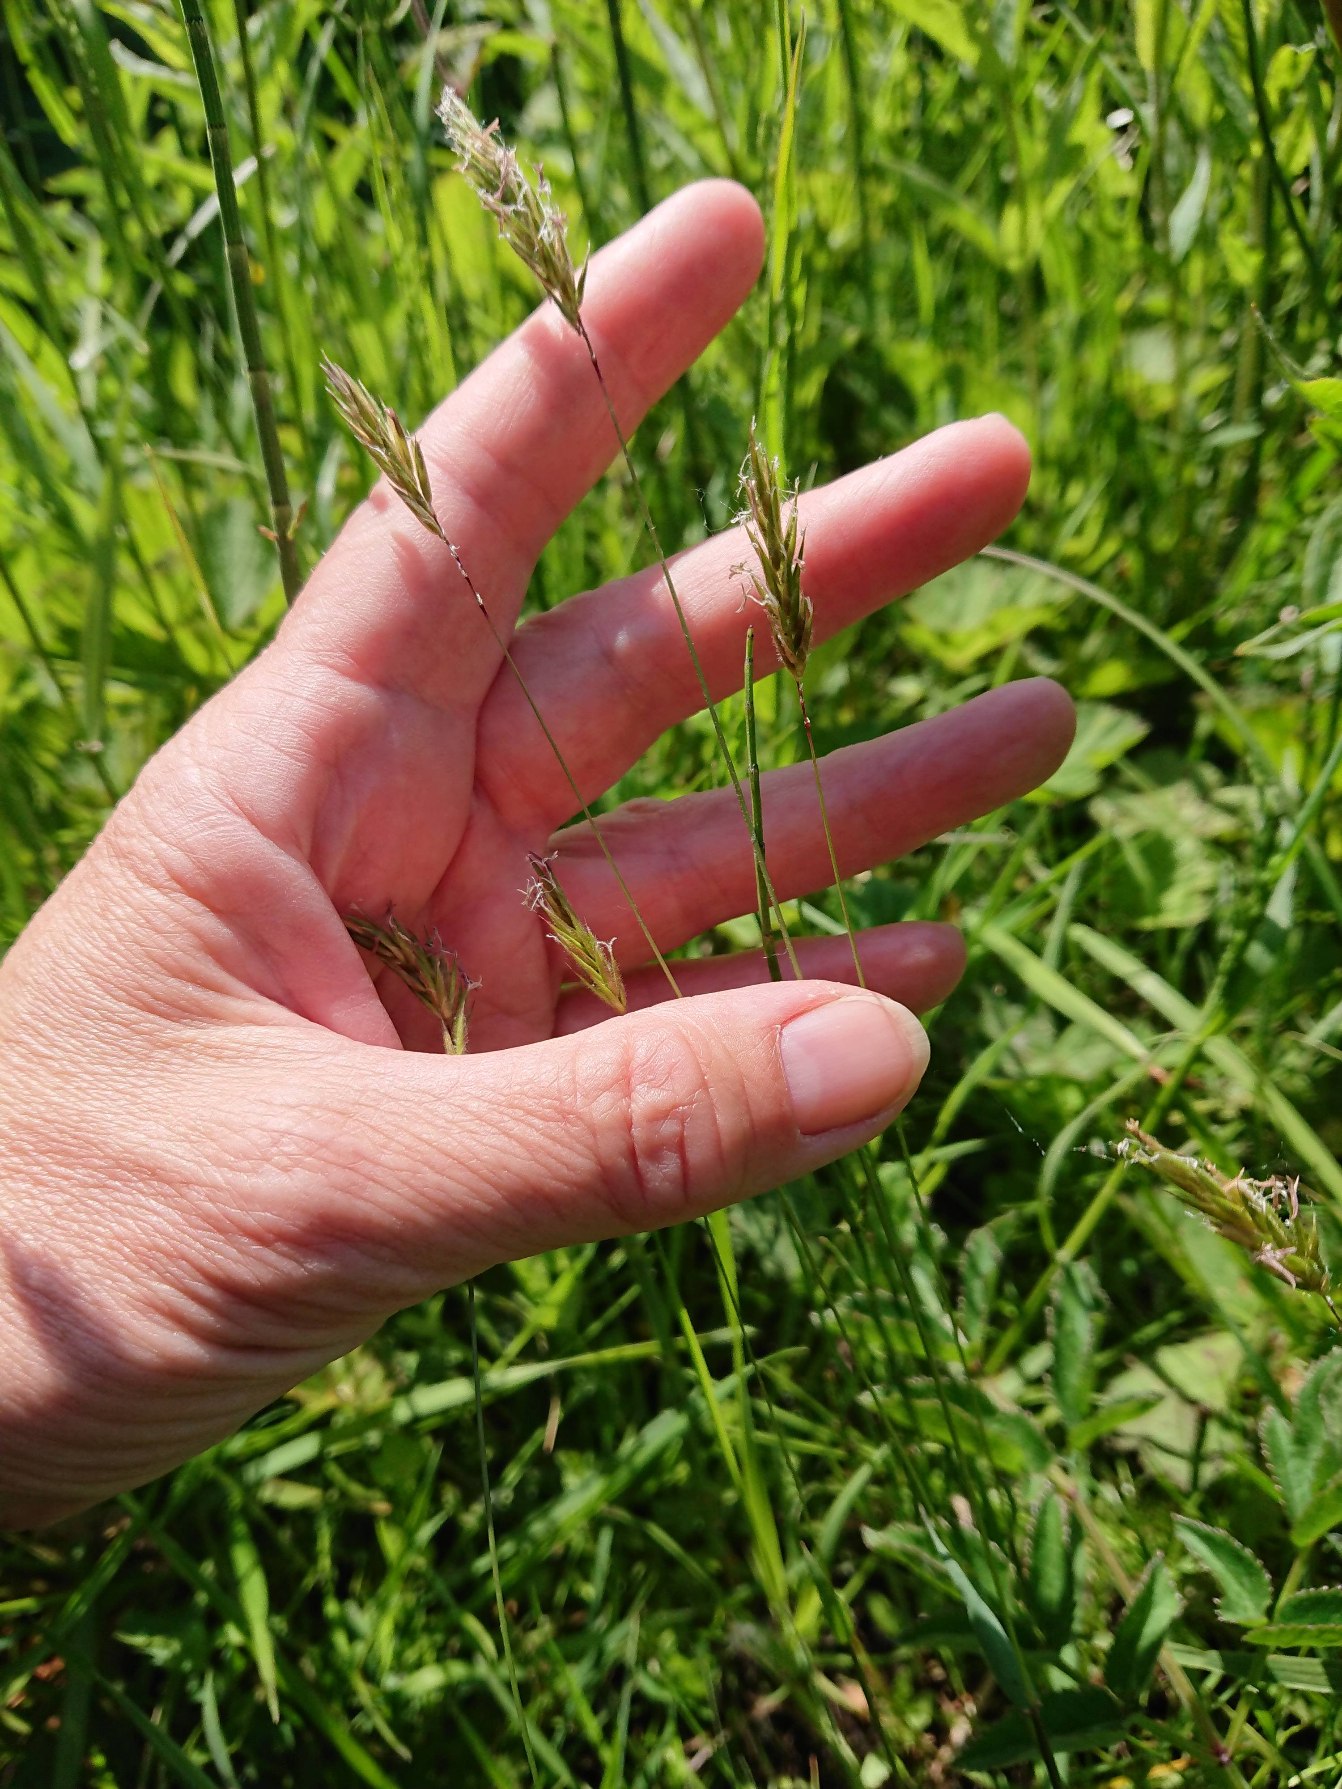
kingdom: Plantae
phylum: Tracheophyta
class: Liliopsida
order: Poales
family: Poaceae
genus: Anthoxanthum
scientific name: Anthoxanthum odoratum
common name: Vellugtende gulaks
